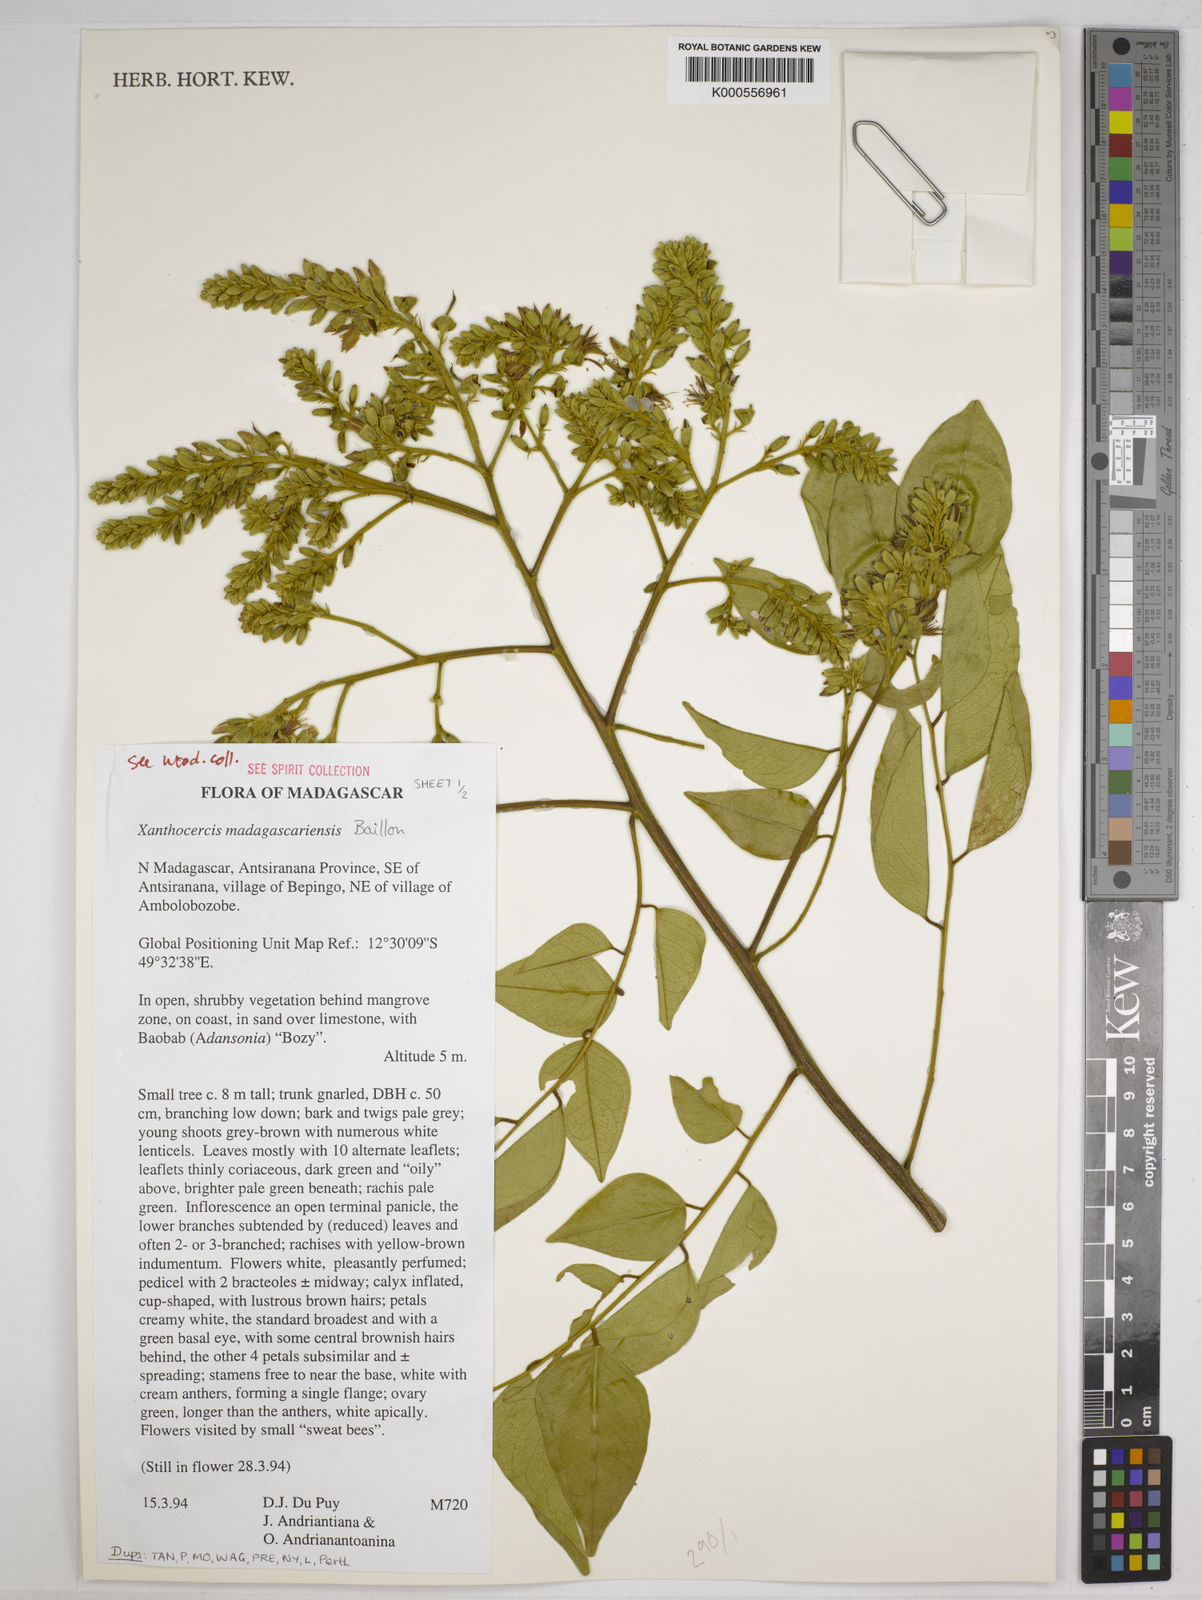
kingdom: Plantae
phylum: Tracheophyta
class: Magnoliopsida
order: Fabales
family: Fabaceae
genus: Xanthocercis
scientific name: Xanthocercis madagascariensis
